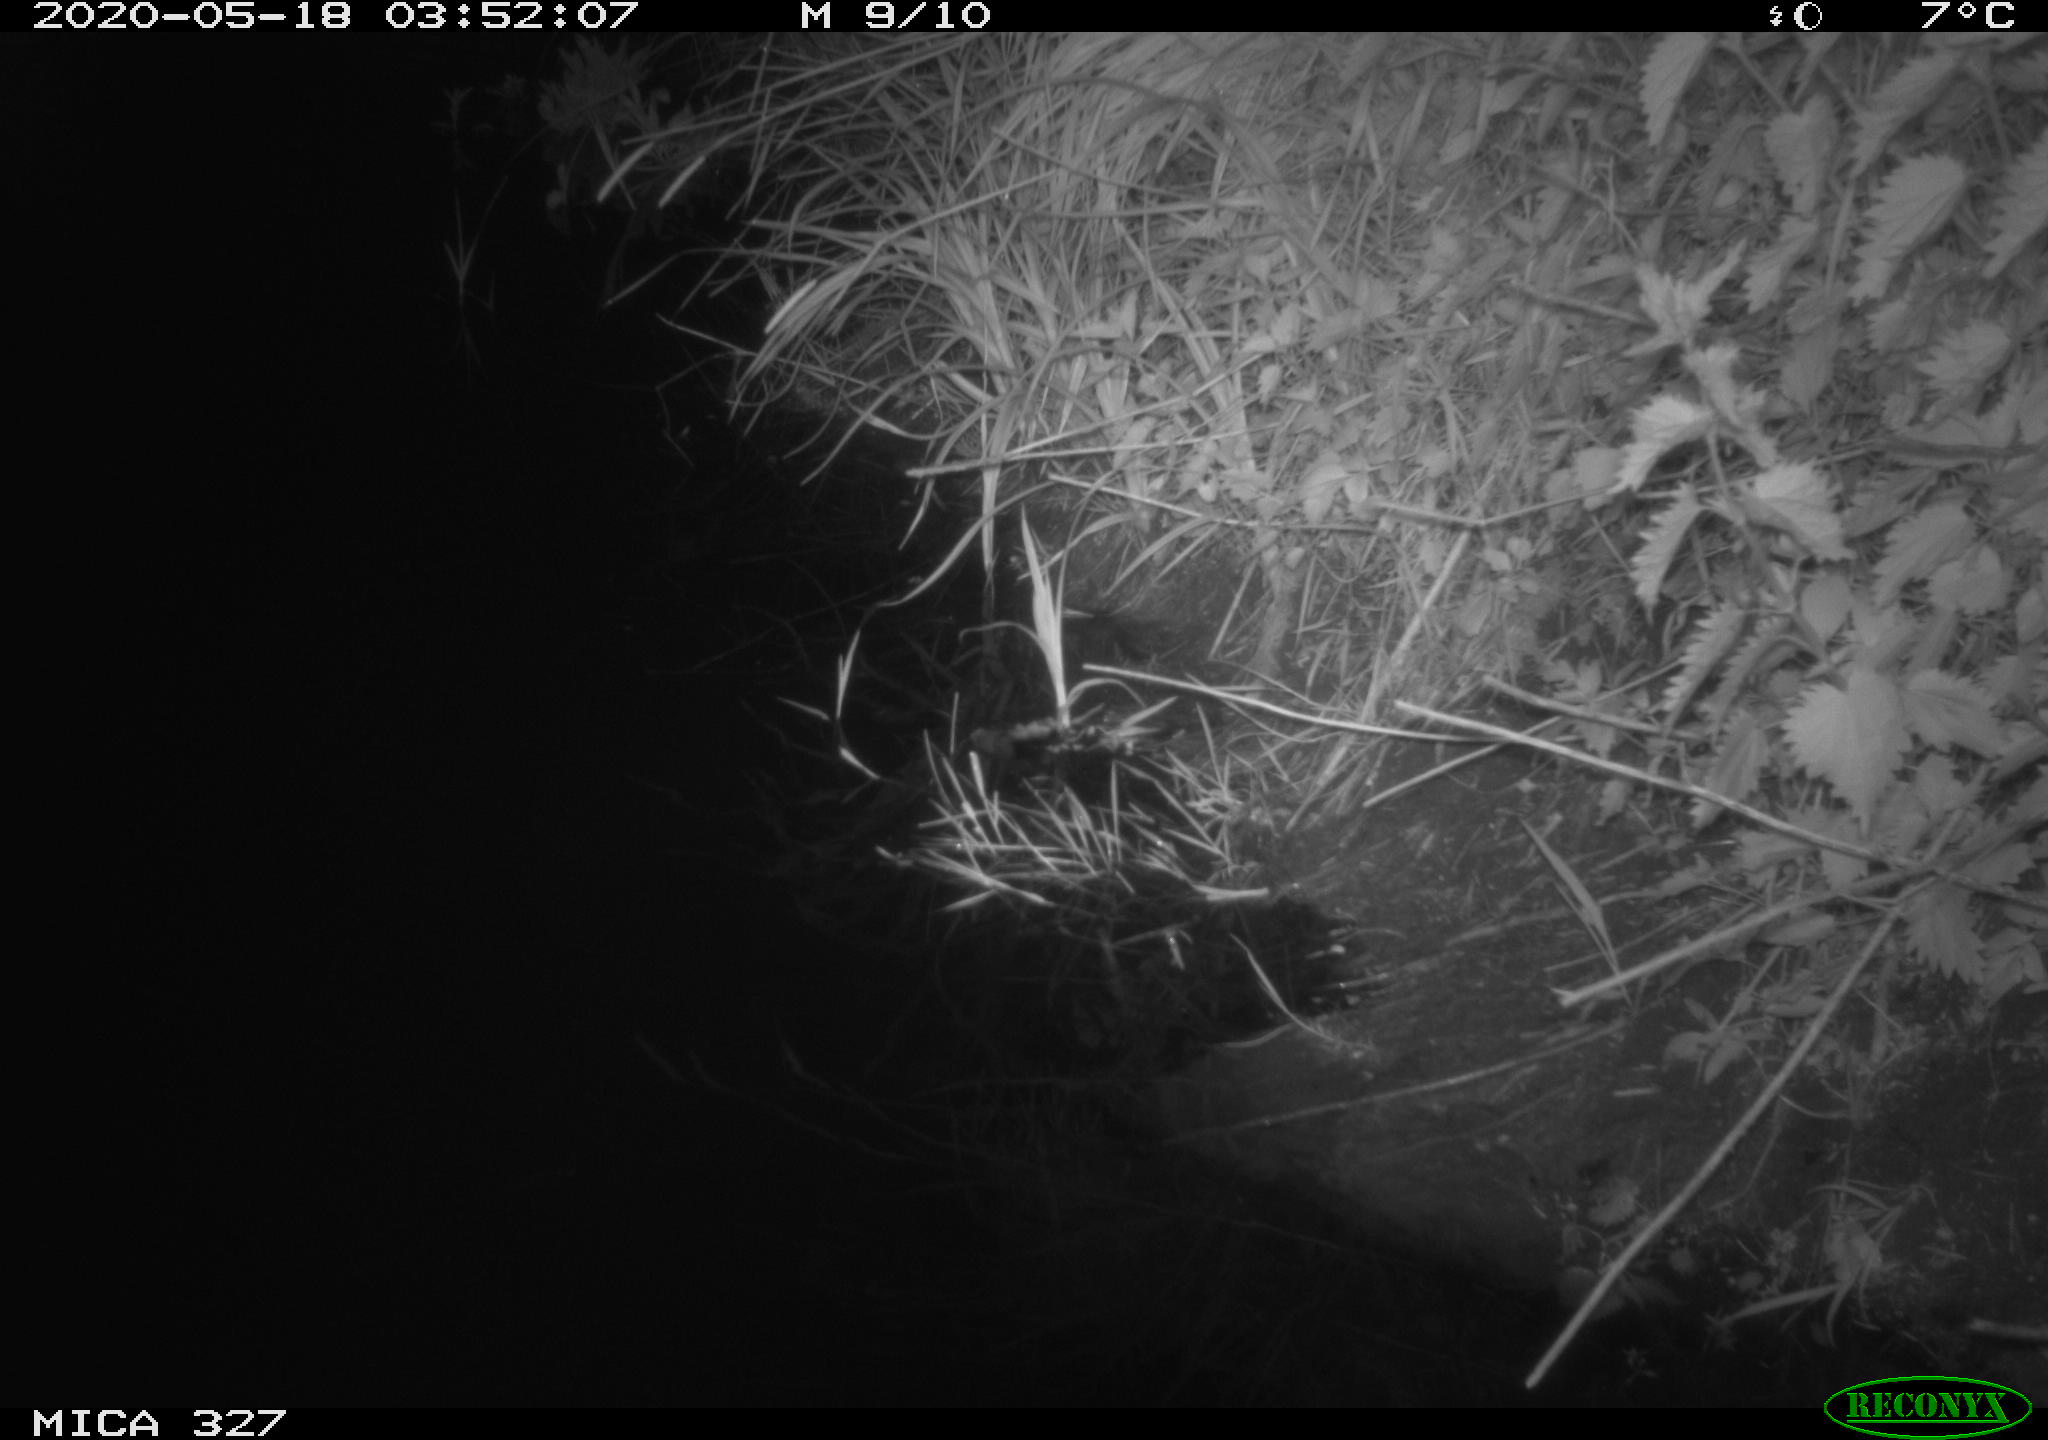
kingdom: Animalia
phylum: Chordata
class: Mammalia
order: Rodentia
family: Cricetidae
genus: Ondatra
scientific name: Ondatra zibethicus
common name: Muskrat
